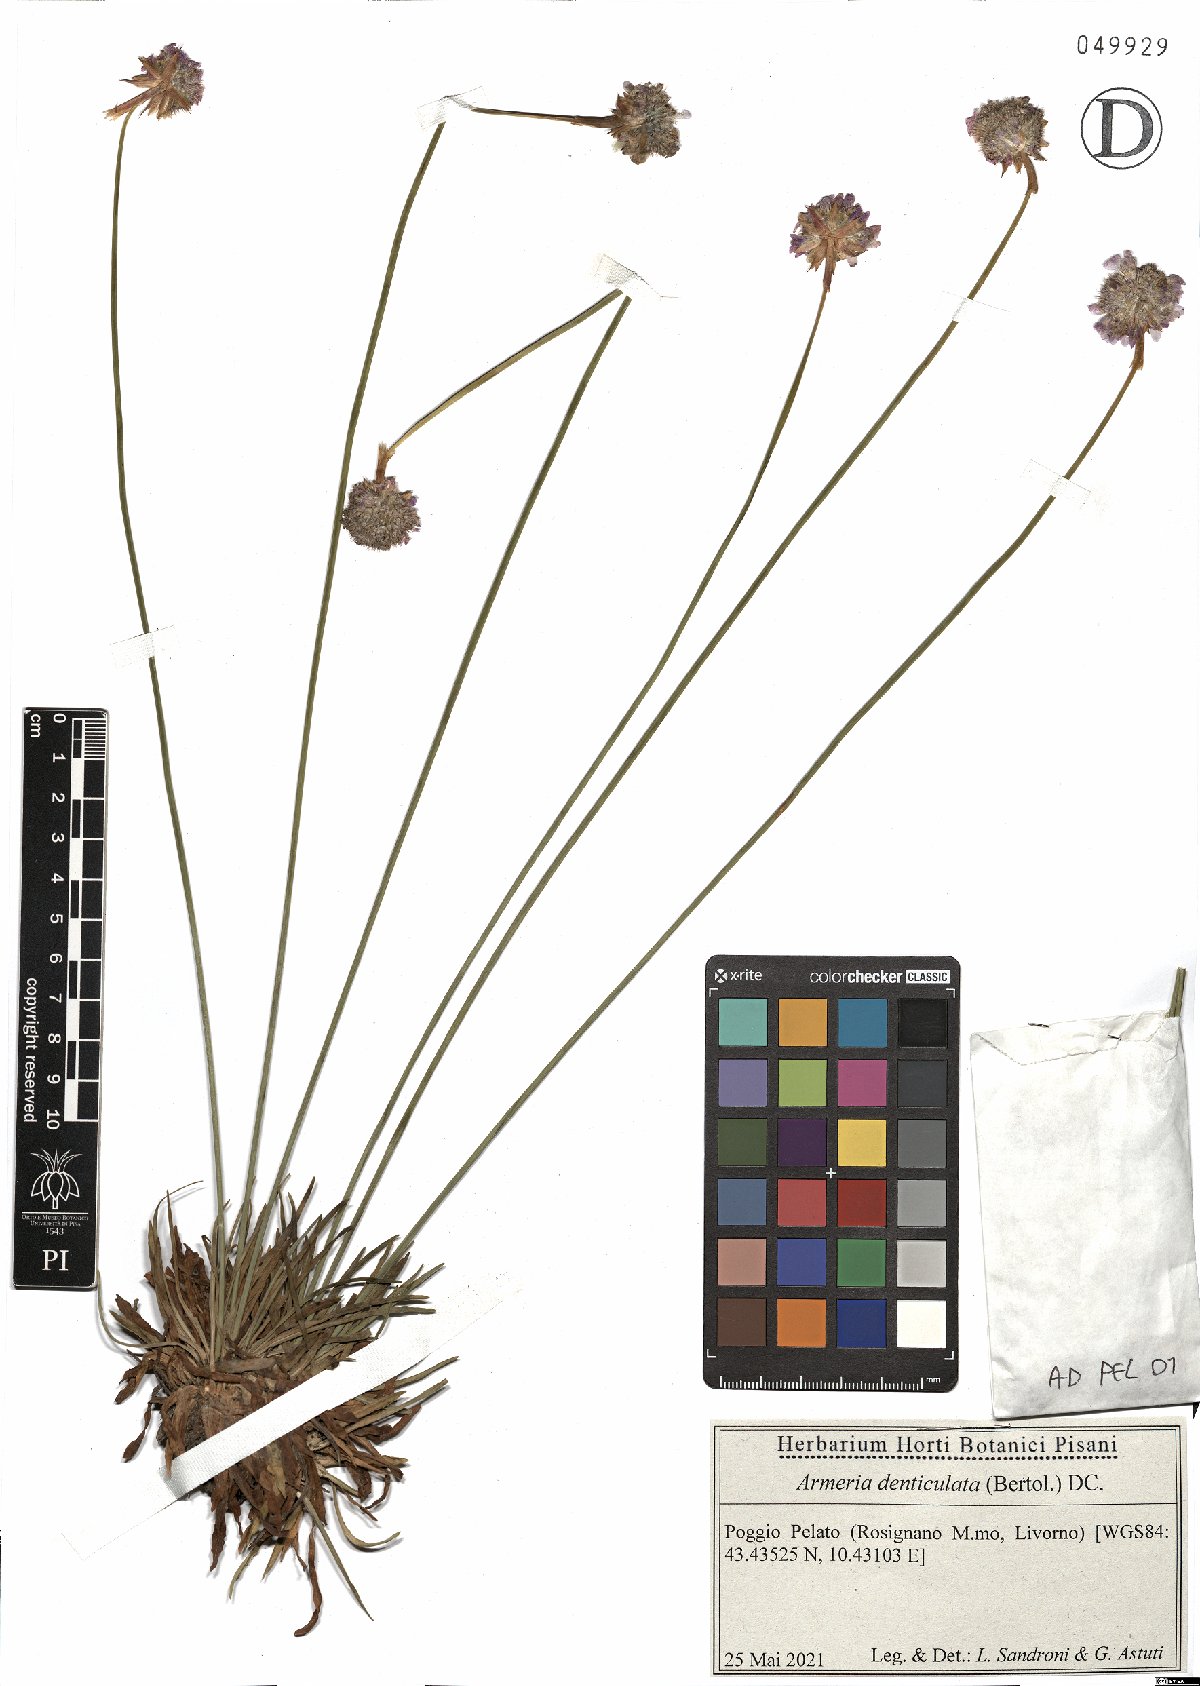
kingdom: Plantae
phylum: Tracheophyta
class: Magnoliopsida
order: Caryophyllales
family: Plumbaginaceae
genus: Armeria
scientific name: Armeria denticulata
